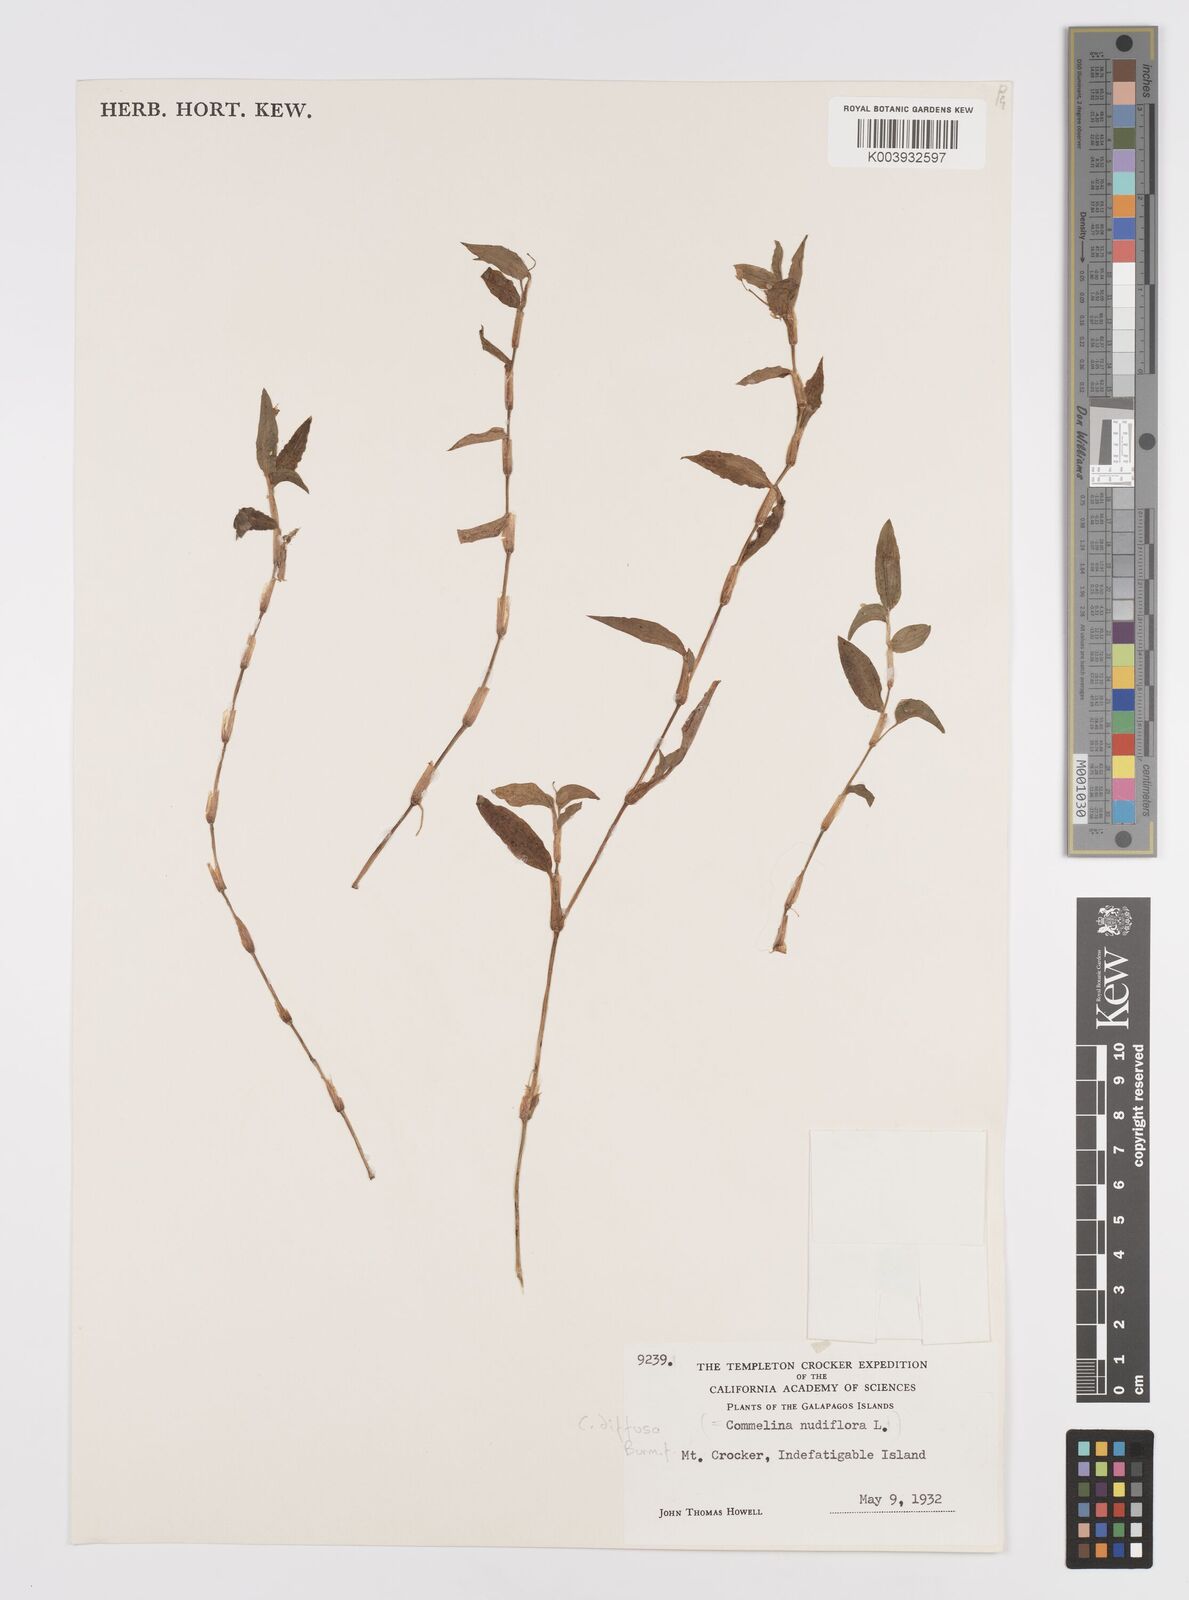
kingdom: Plantae
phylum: Tracheophyta
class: Liliopsida
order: Commelinales
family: Commelinaceae
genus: Commelina
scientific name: Commelina diffusa
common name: Climbing dayflower
